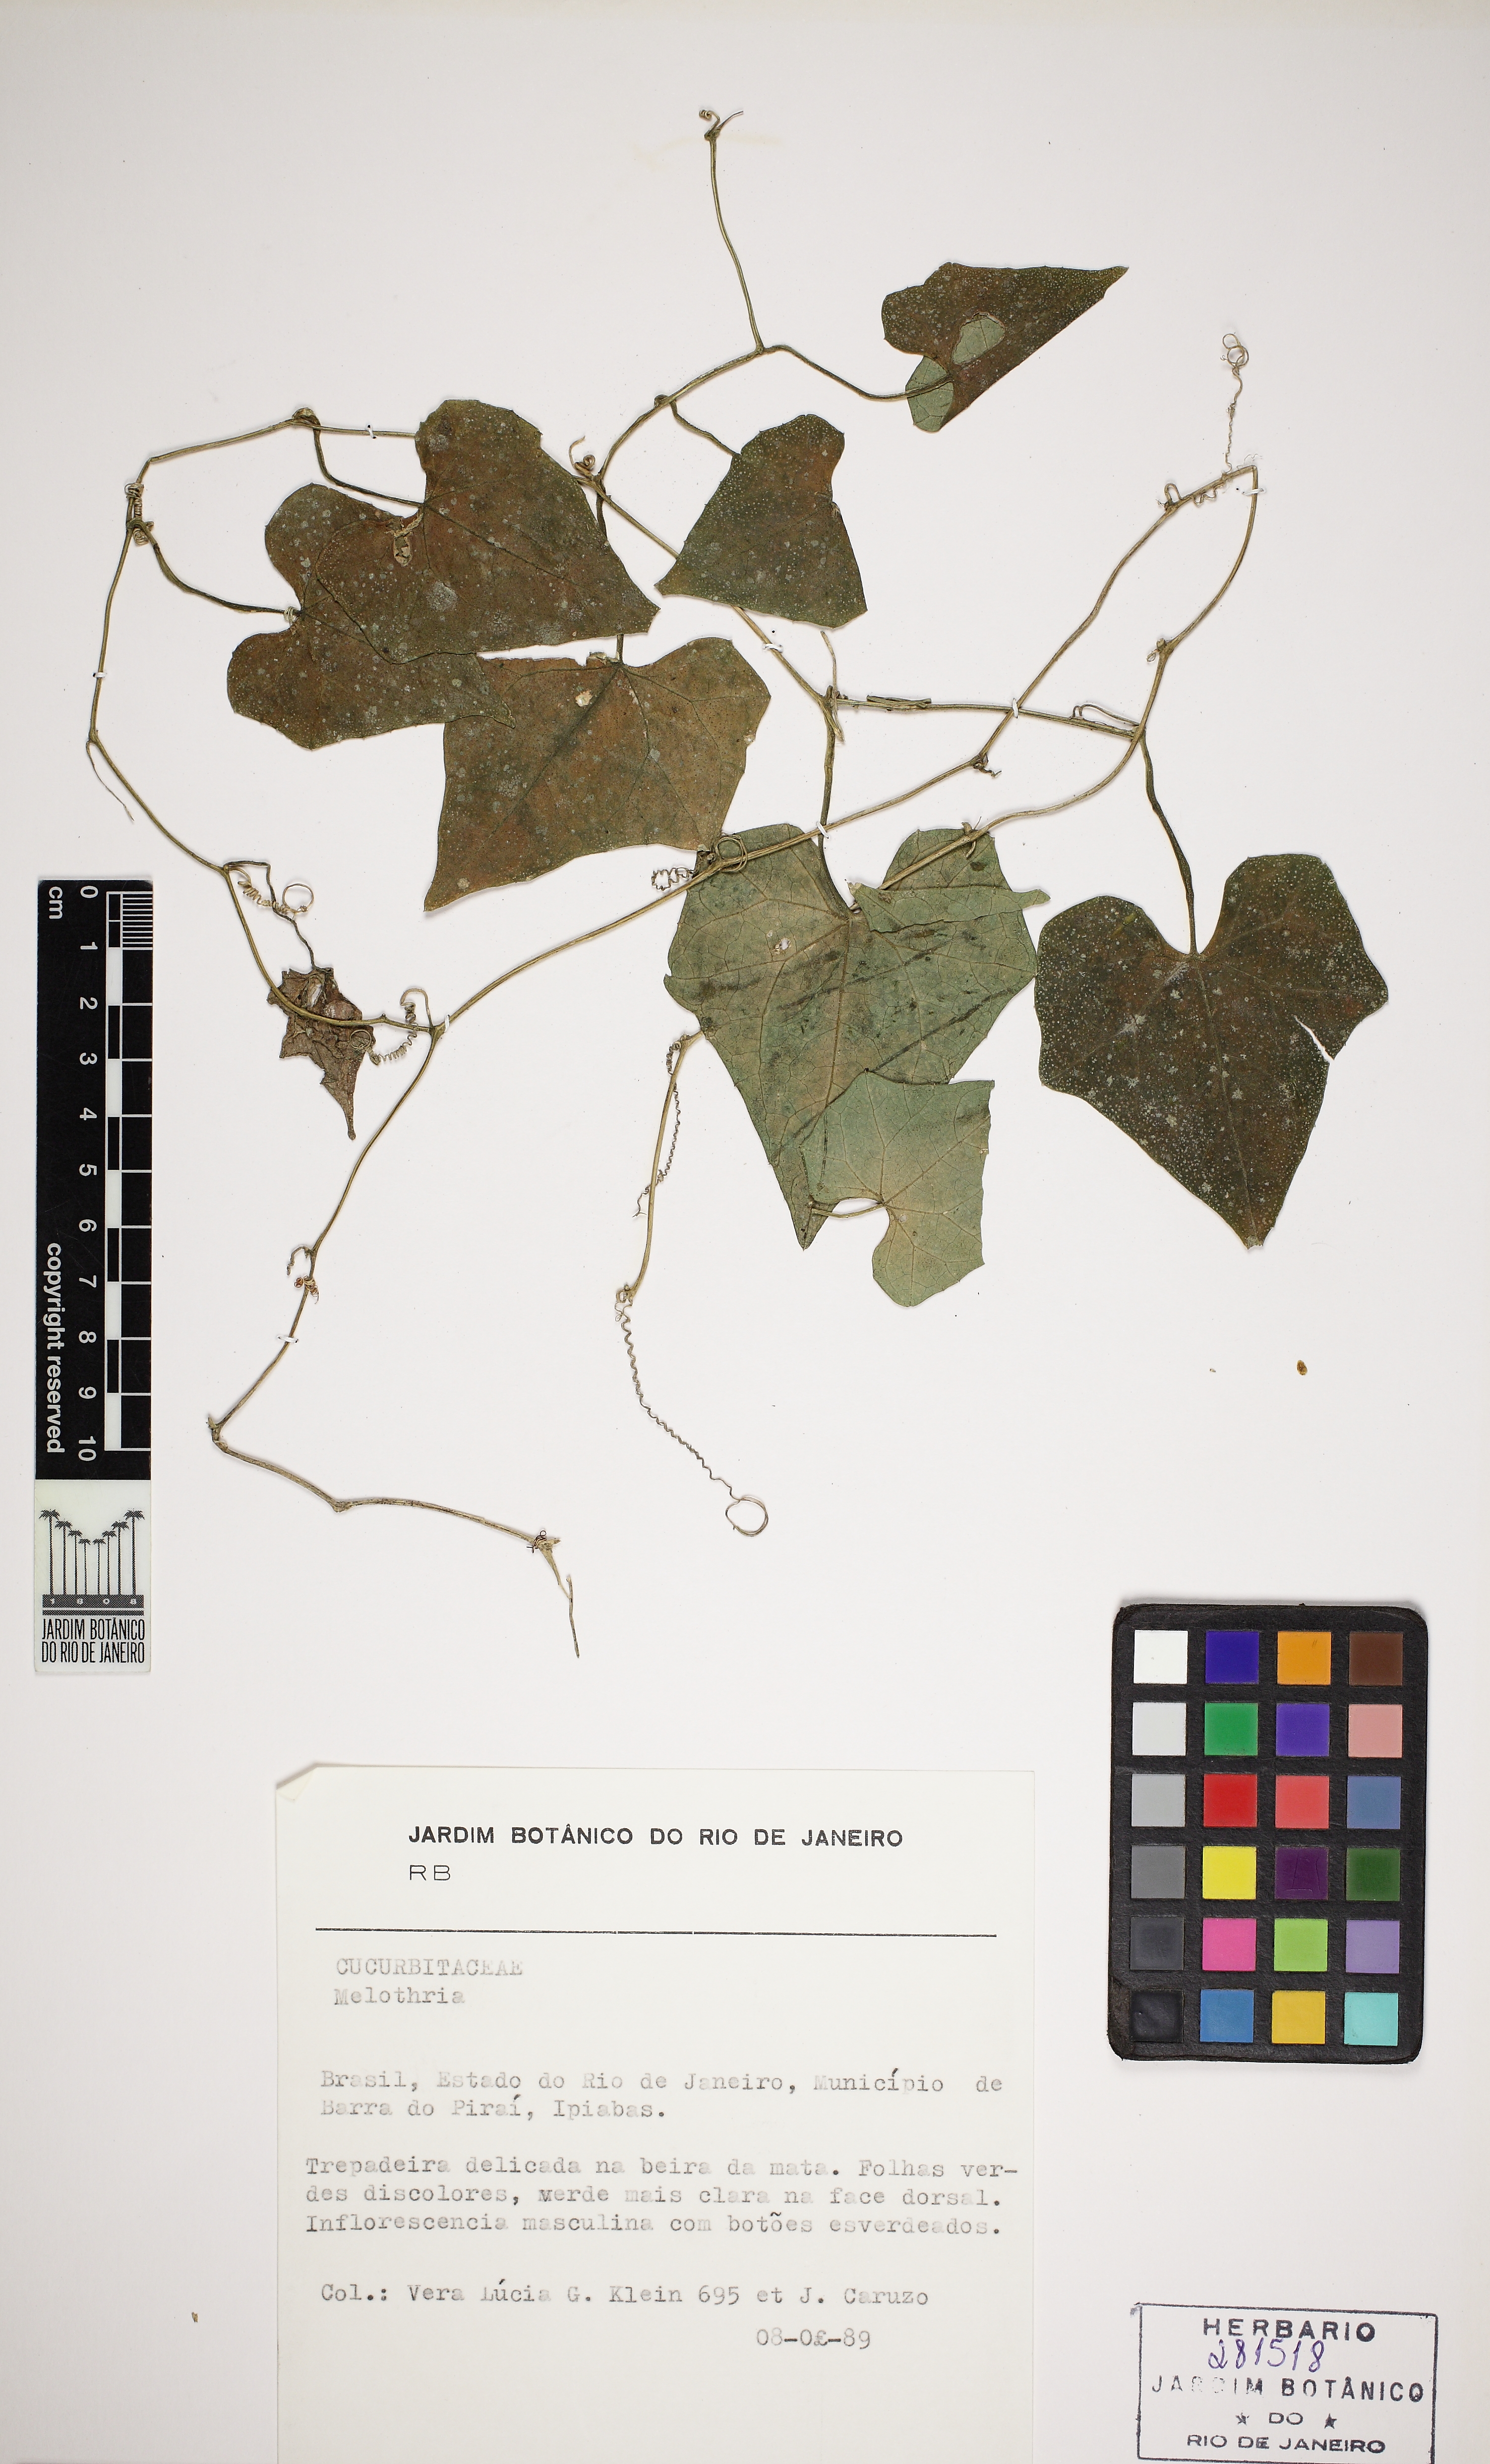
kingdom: Plantae
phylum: Tracheophyta
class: Magnoliopsida
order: Cucurbitales
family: Cucurbitaceae
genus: Melothria
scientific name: Melothria cucumis
